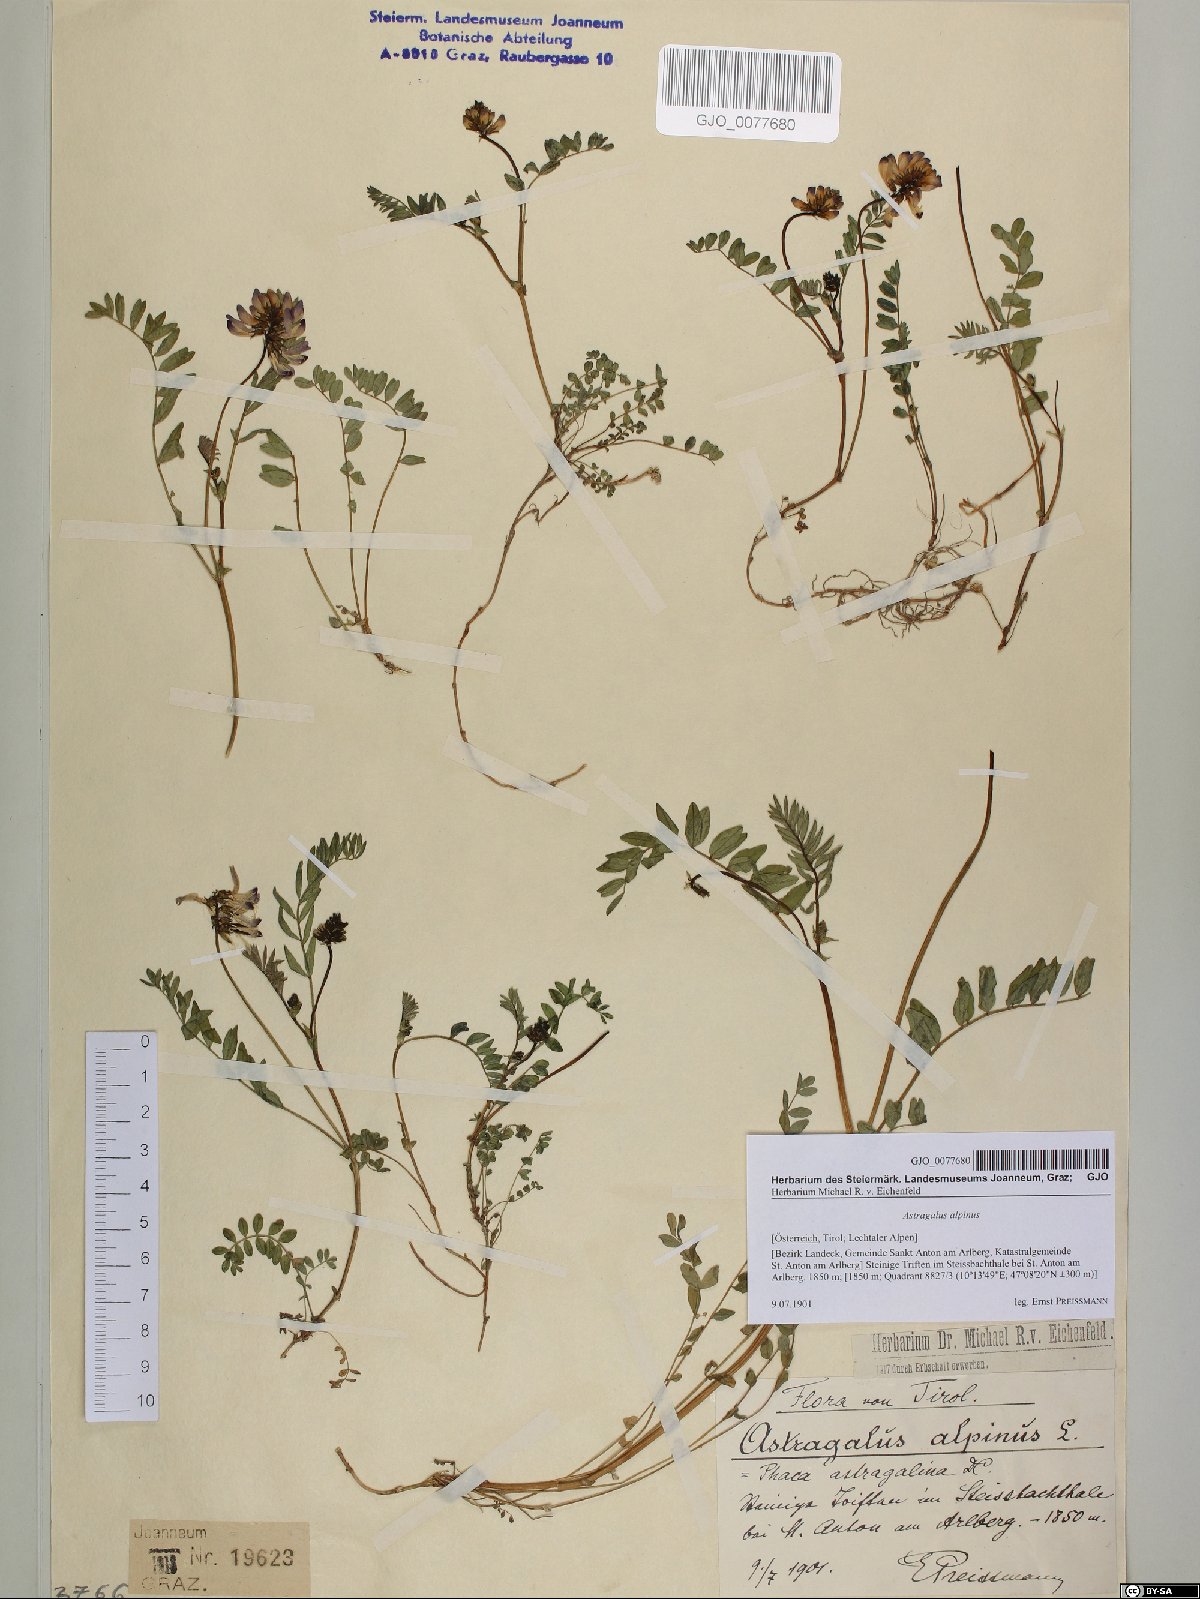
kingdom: Plantae
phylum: Tracheophyta
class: Magnoliopsida
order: Fabales
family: Fabaceae
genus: Astragalus
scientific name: Astragalus alpinus
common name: Alpine milk-vetch
